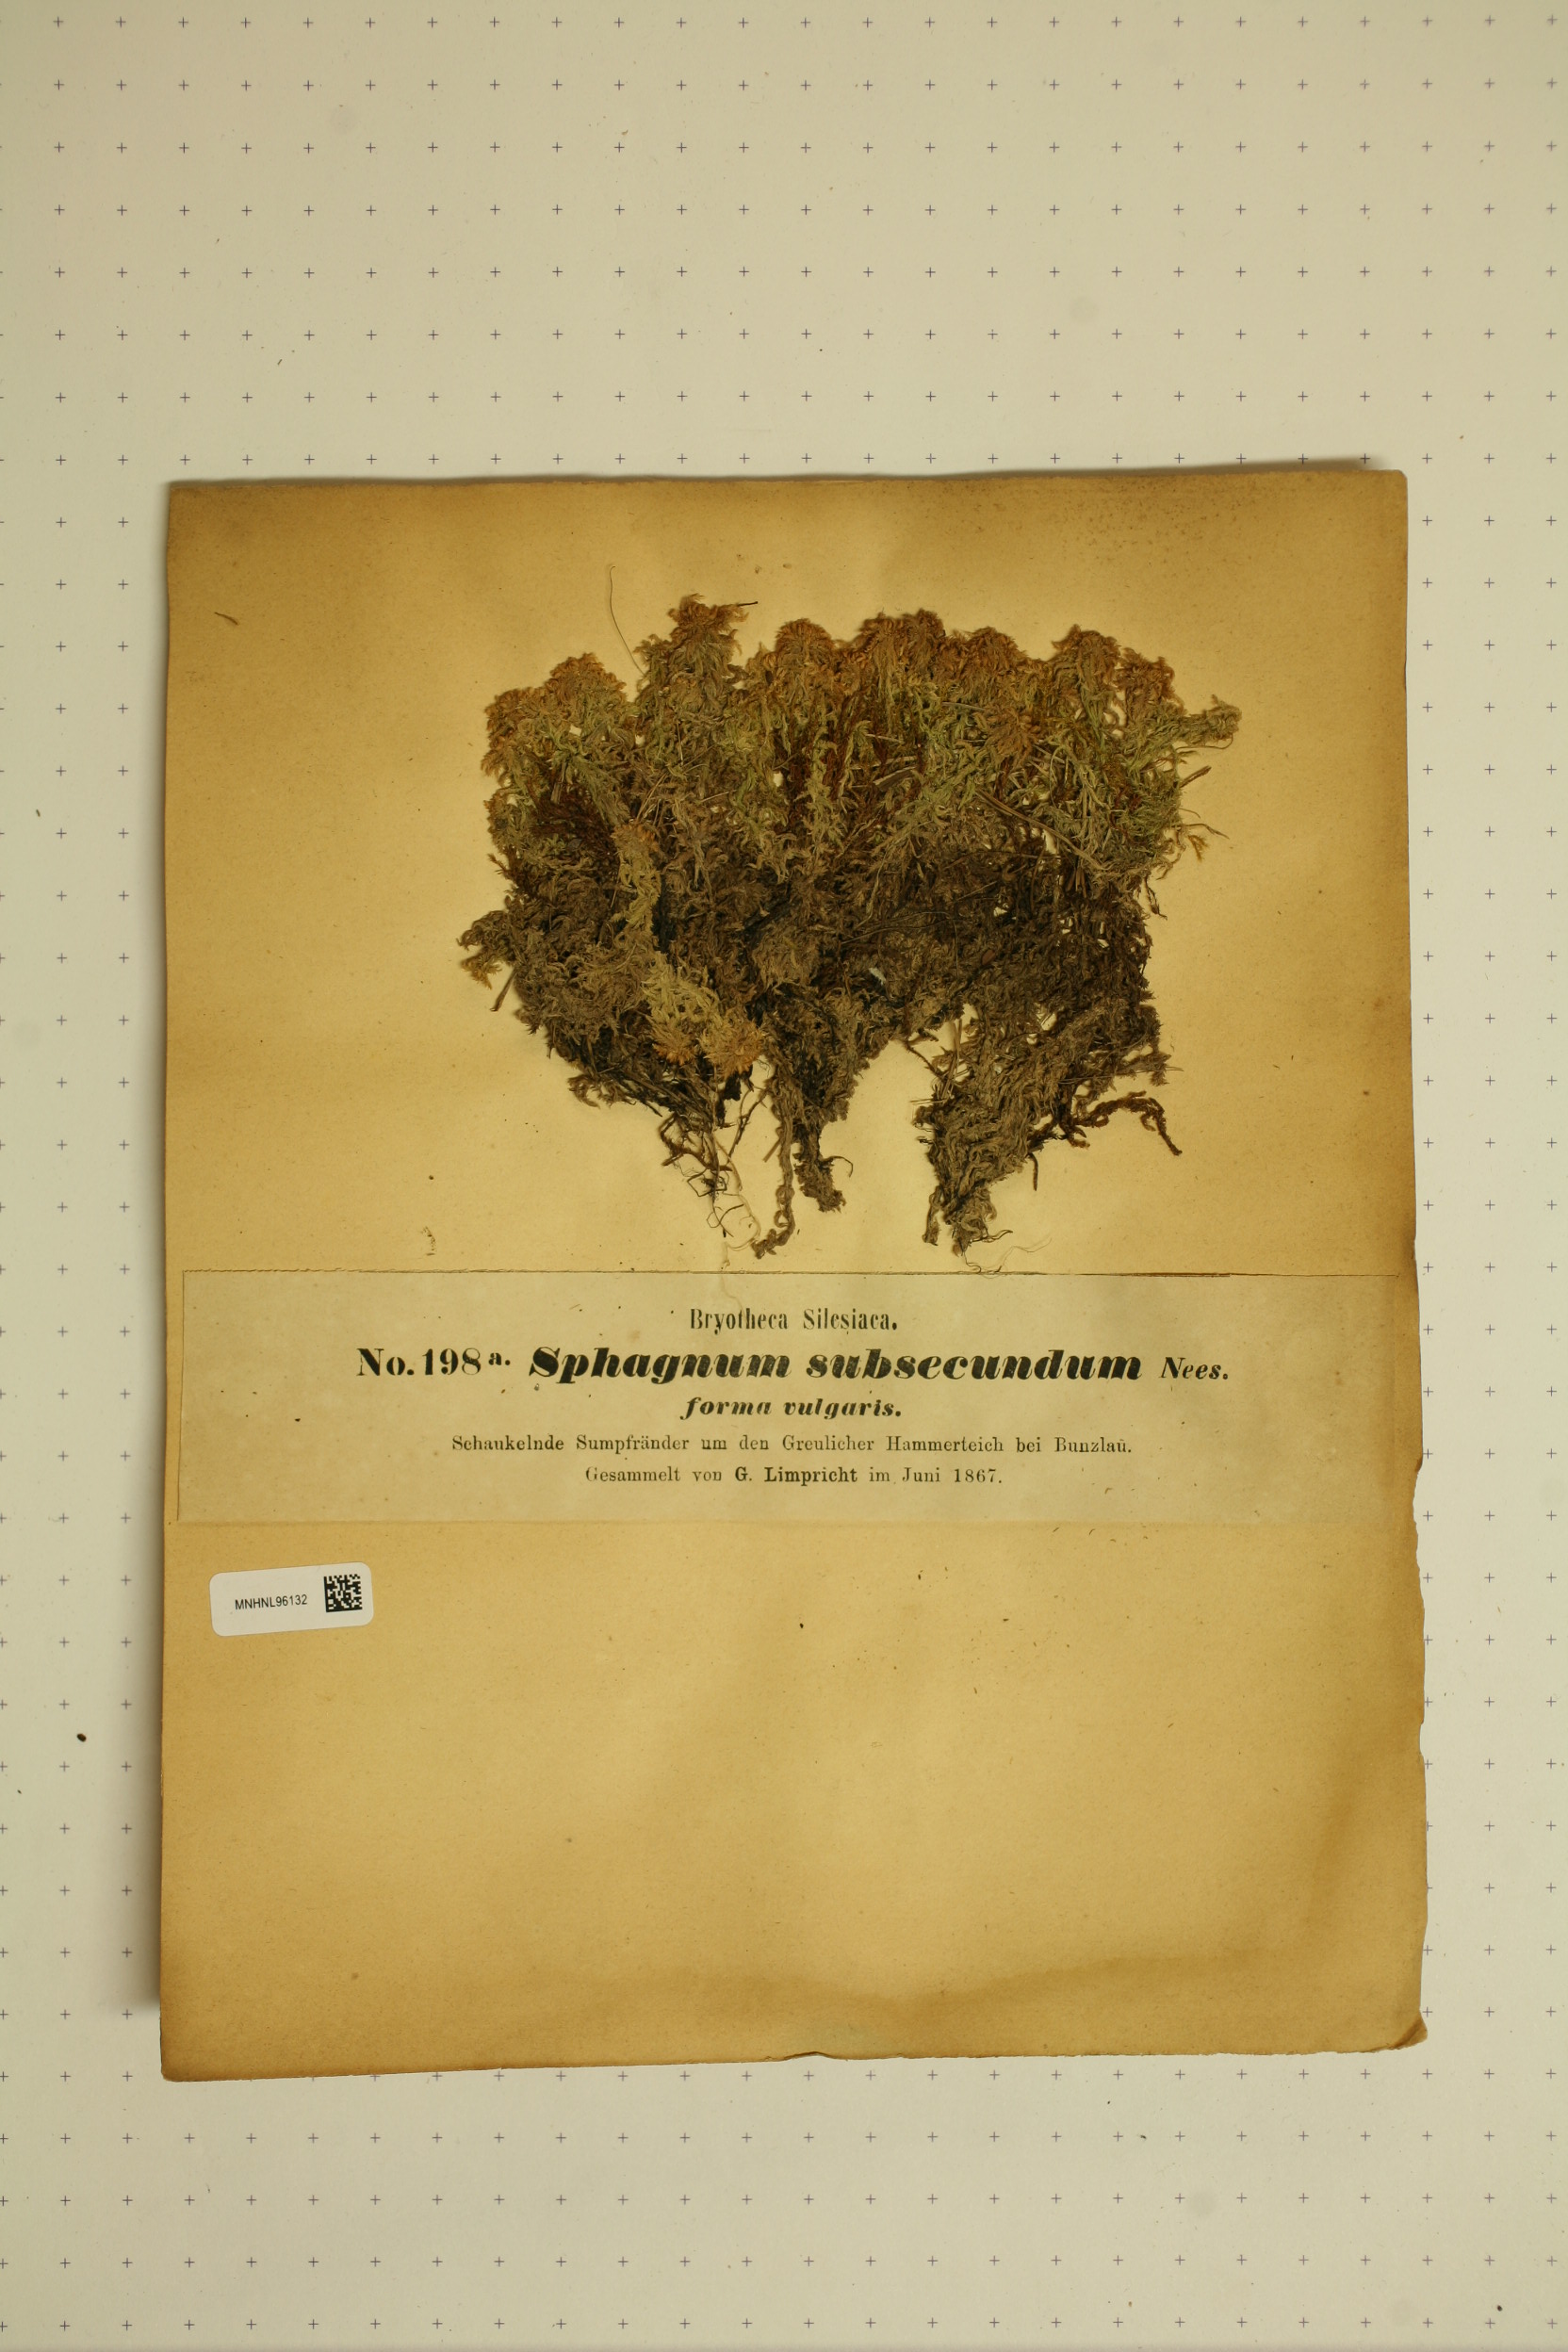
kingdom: Plantae
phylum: Bryophyta
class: Sphagnopsida
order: Sphagnales
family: Sphagnaceae
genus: Sphagnum
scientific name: Sphagnum subsecundum
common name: Orange peat moss
